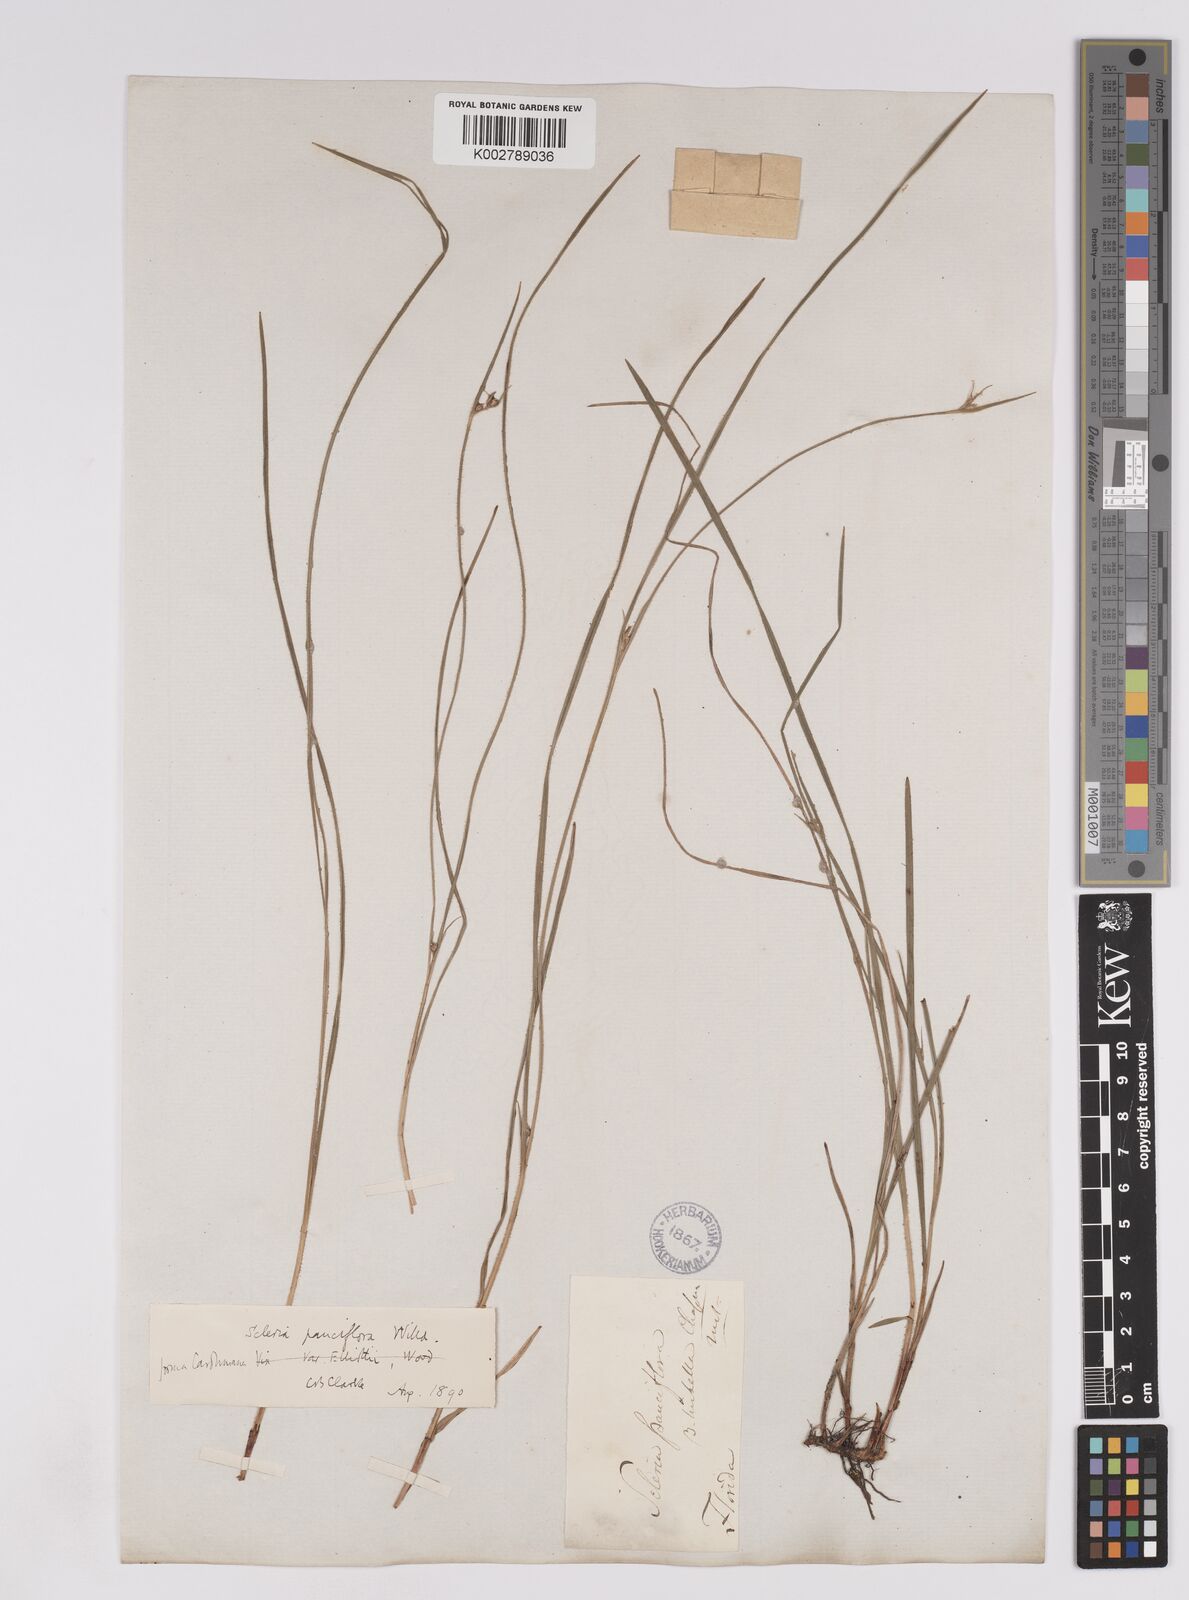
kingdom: Plantae
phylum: Tracheophyta
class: Liliopsida
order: Poales
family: Cyperaceae
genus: Scleria
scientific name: Scleria pauciflora
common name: Few-flowered nutrush
